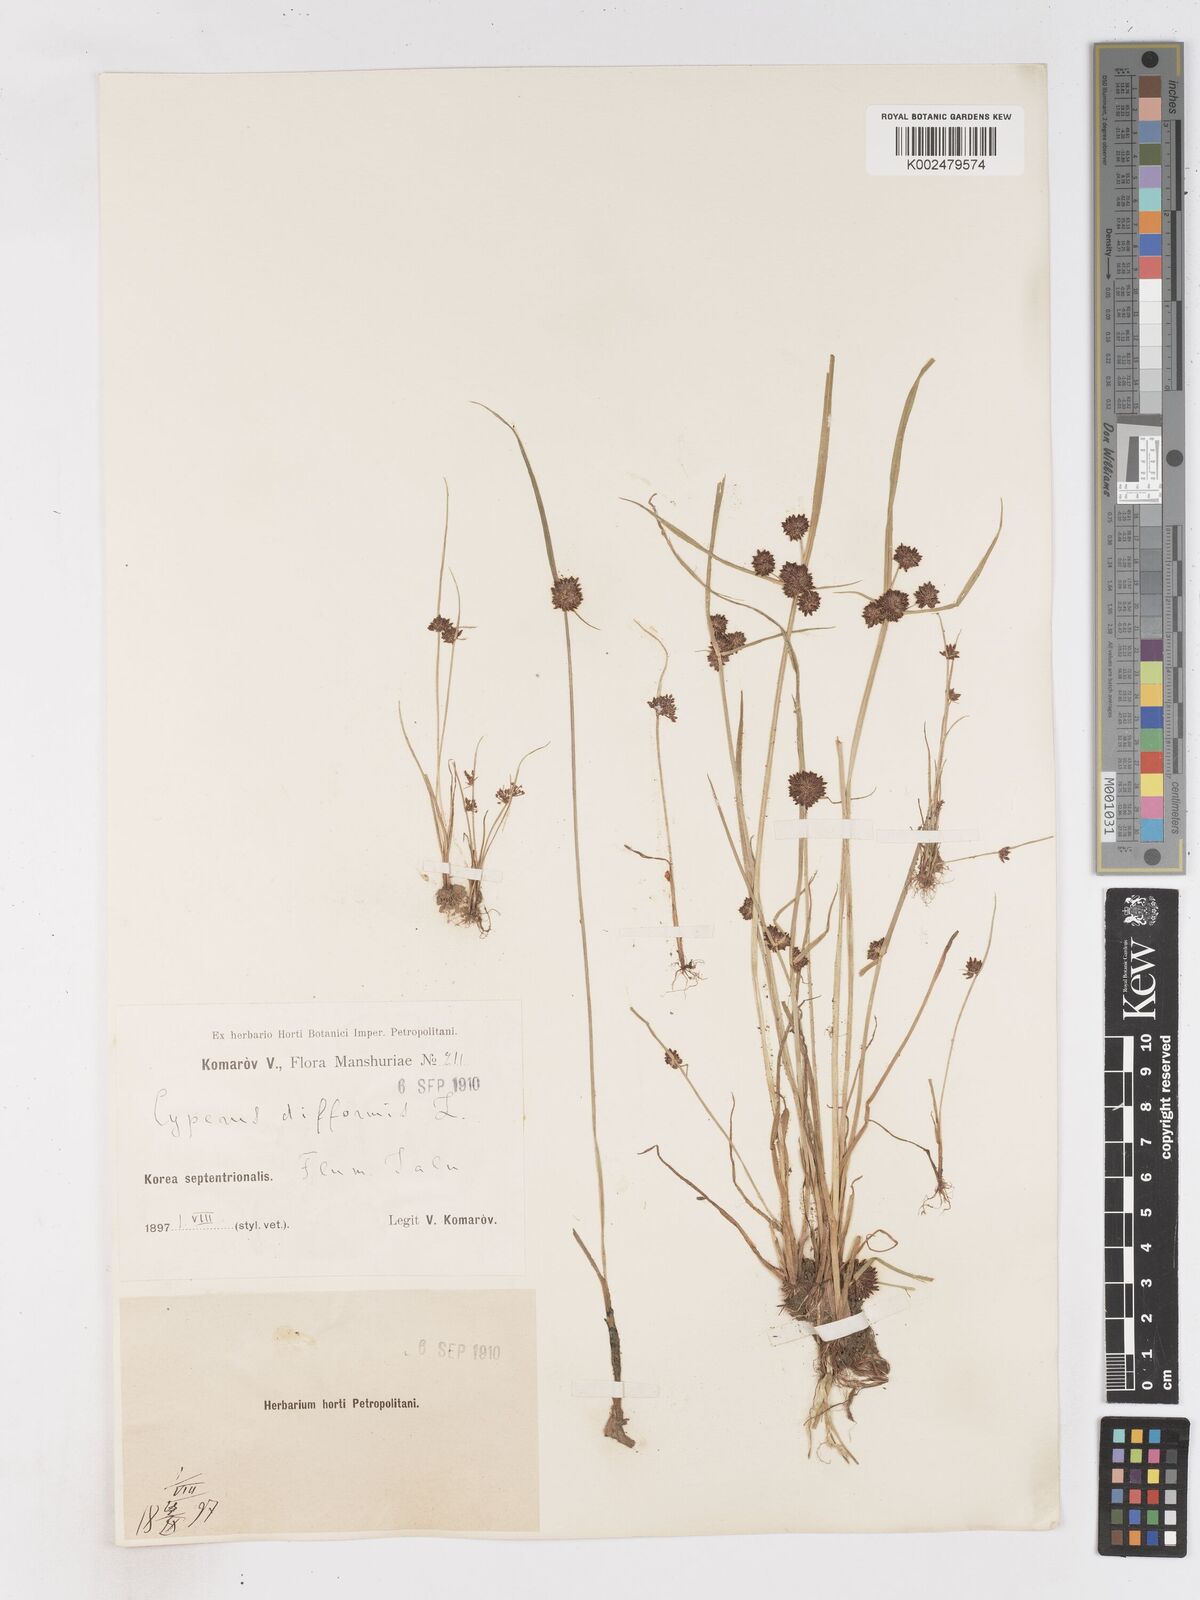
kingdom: Plantae
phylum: Tracheophyta
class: Liliopsida
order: Poales
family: Cyperaceae
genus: Cyperus
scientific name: Cyperus difformis
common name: Variable flatsedge
